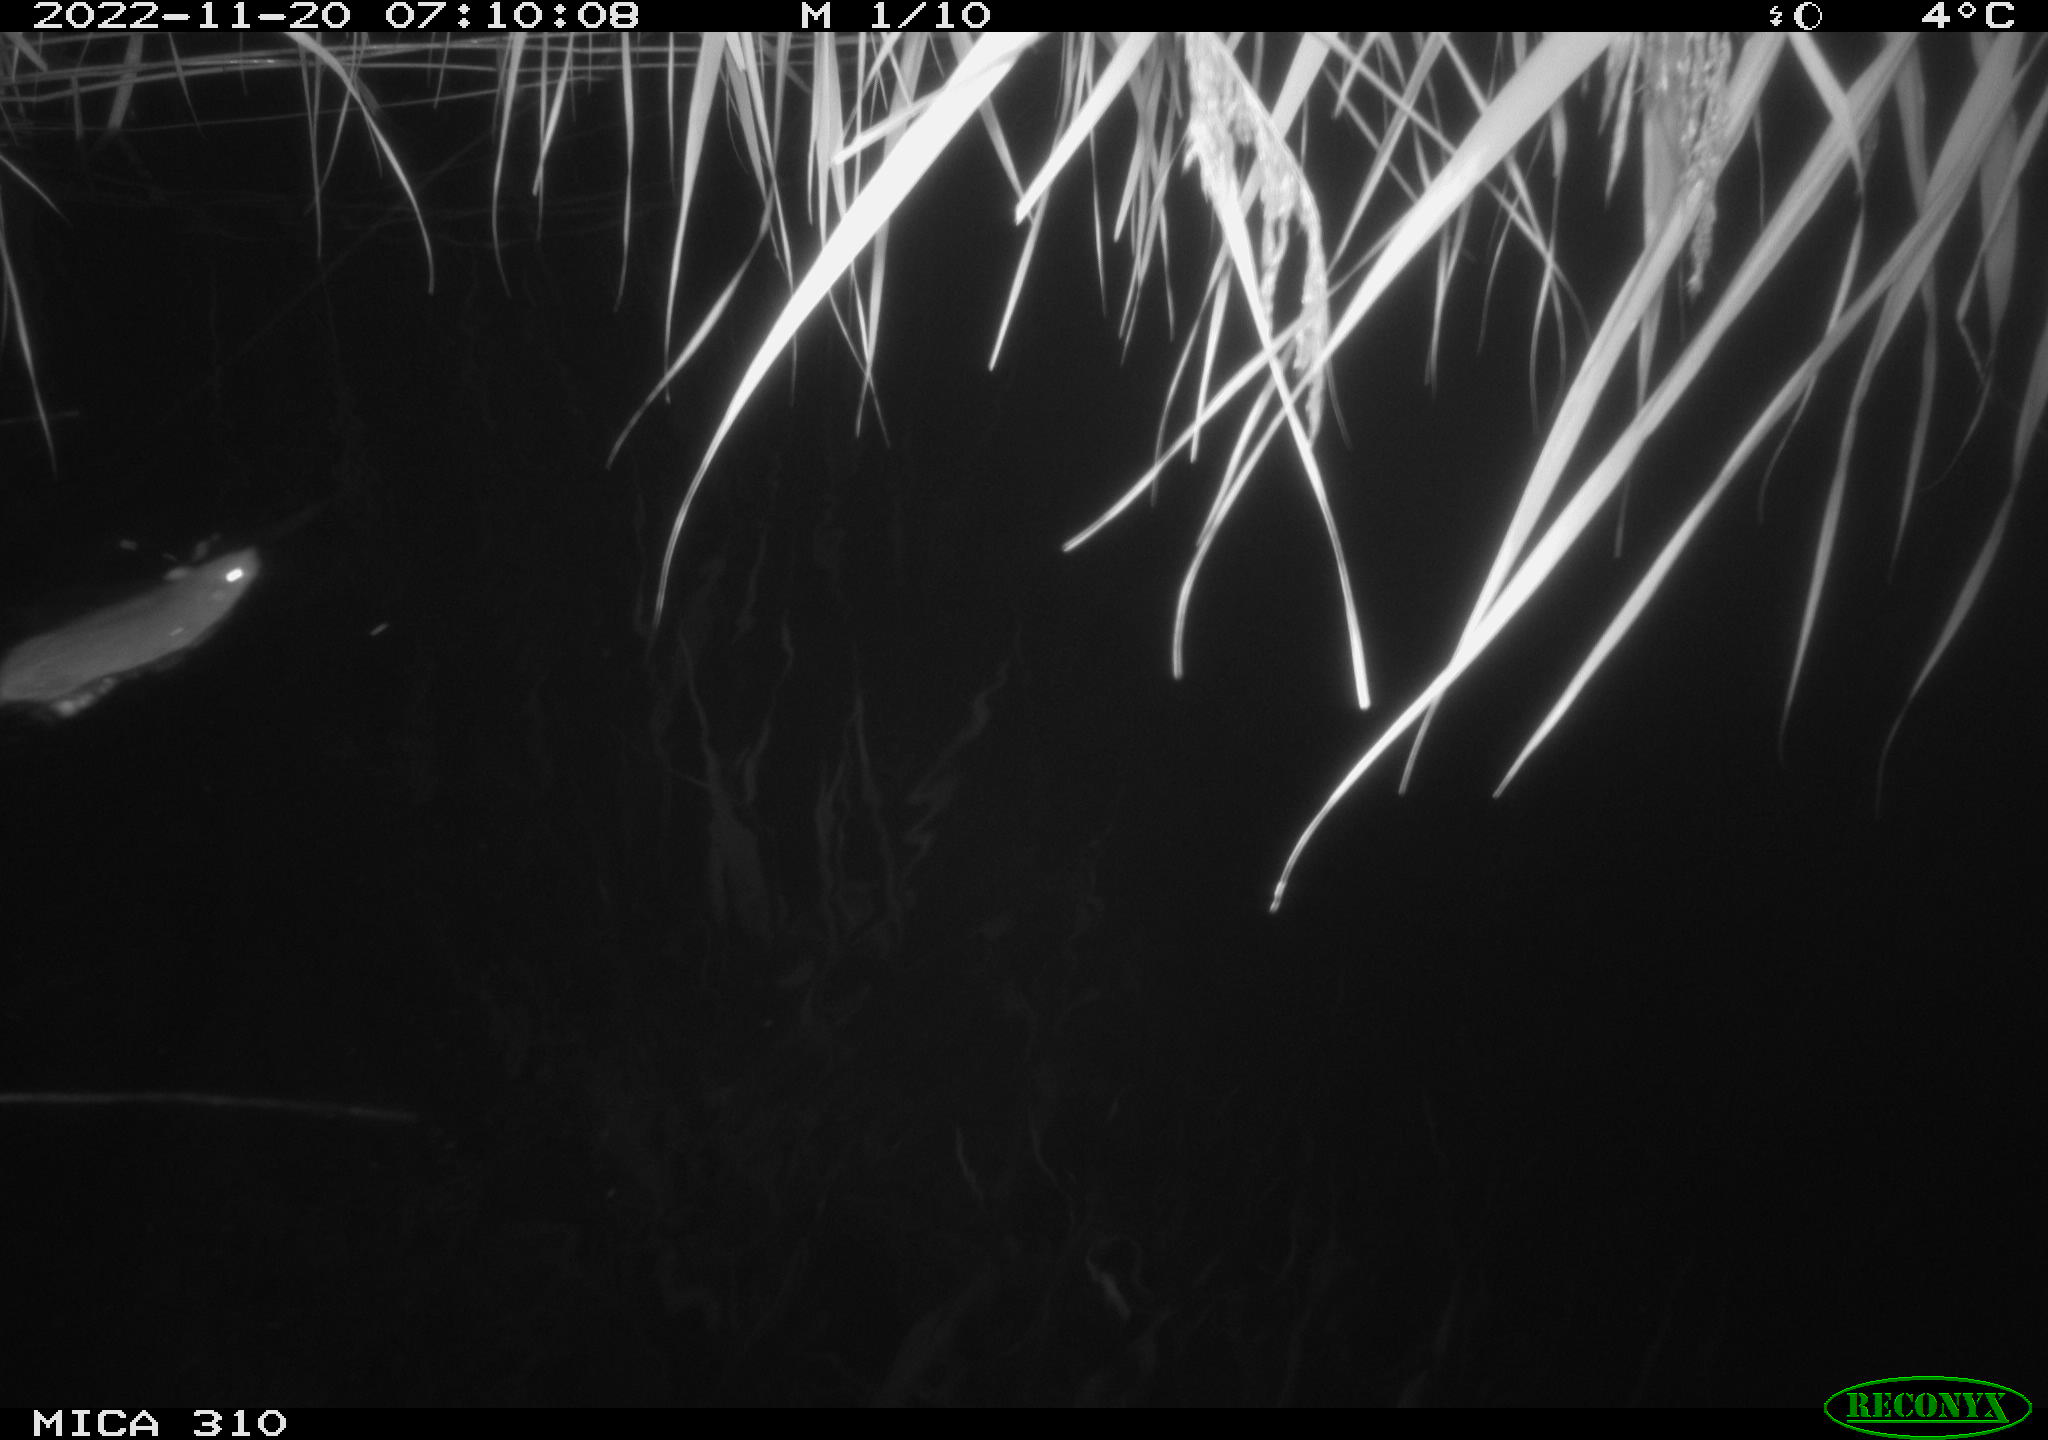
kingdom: Animalia
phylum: Chordata
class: Mammalia
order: Rodentia
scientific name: Rodentia
